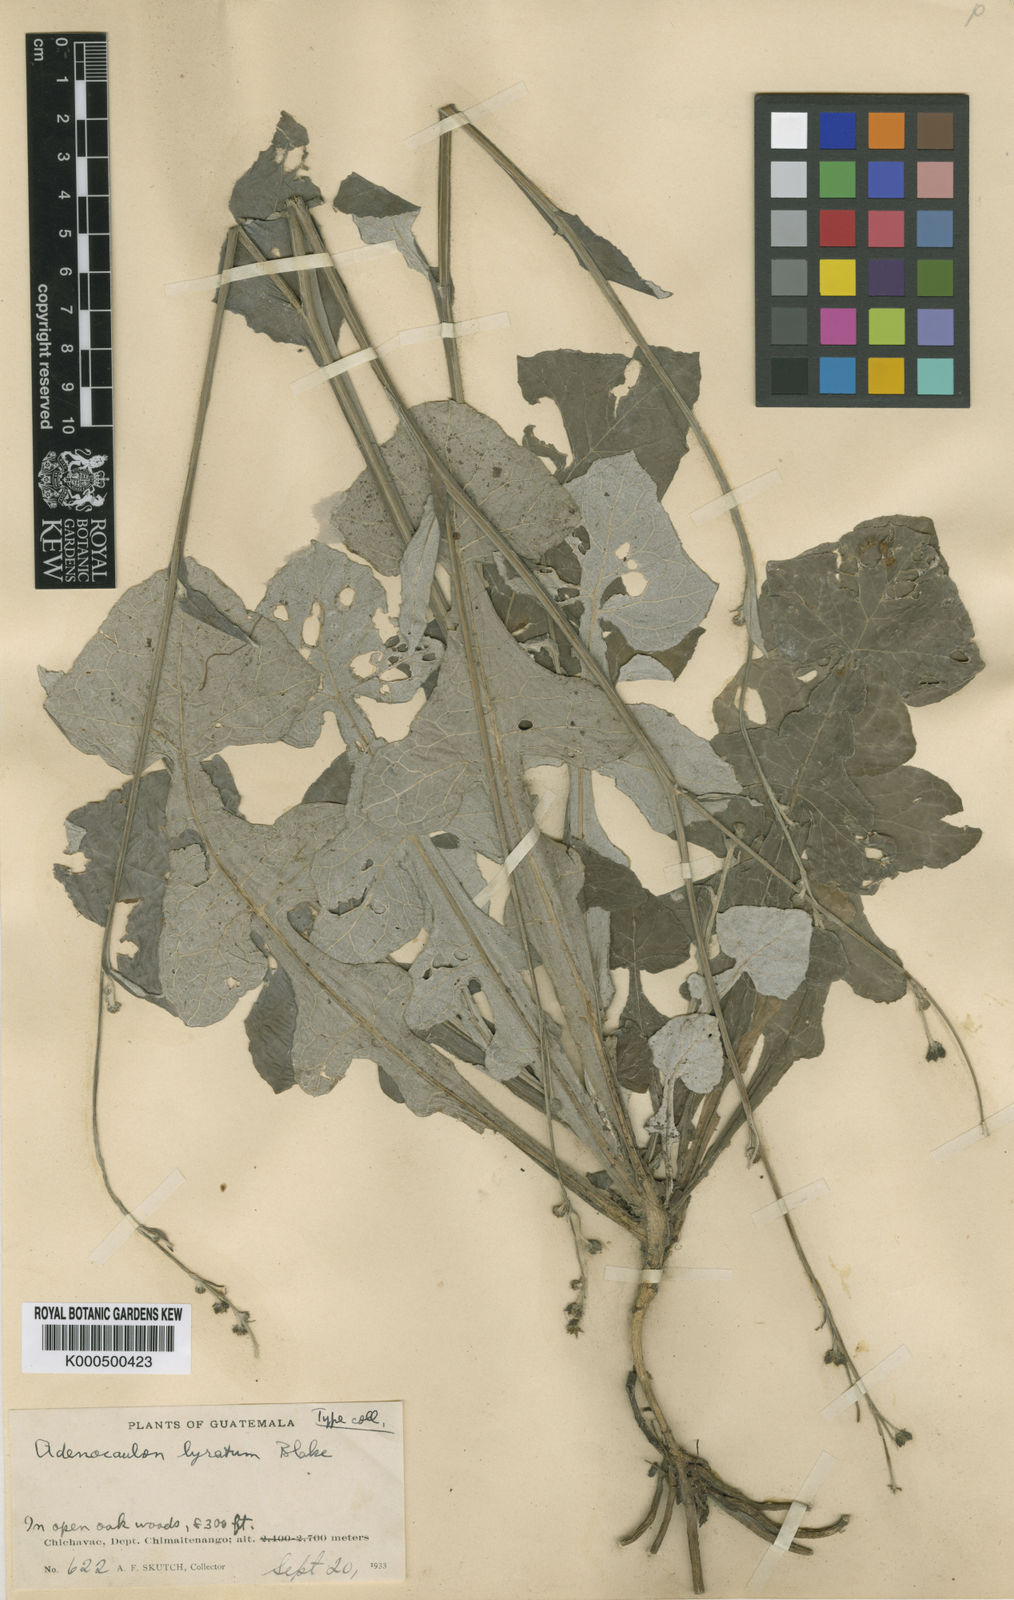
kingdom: Plantae
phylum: Tracheophyta
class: Magnoliopsida
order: Asterales
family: Asteraceae
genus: Adenocaulon
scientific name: Adenocaulon lyratum
